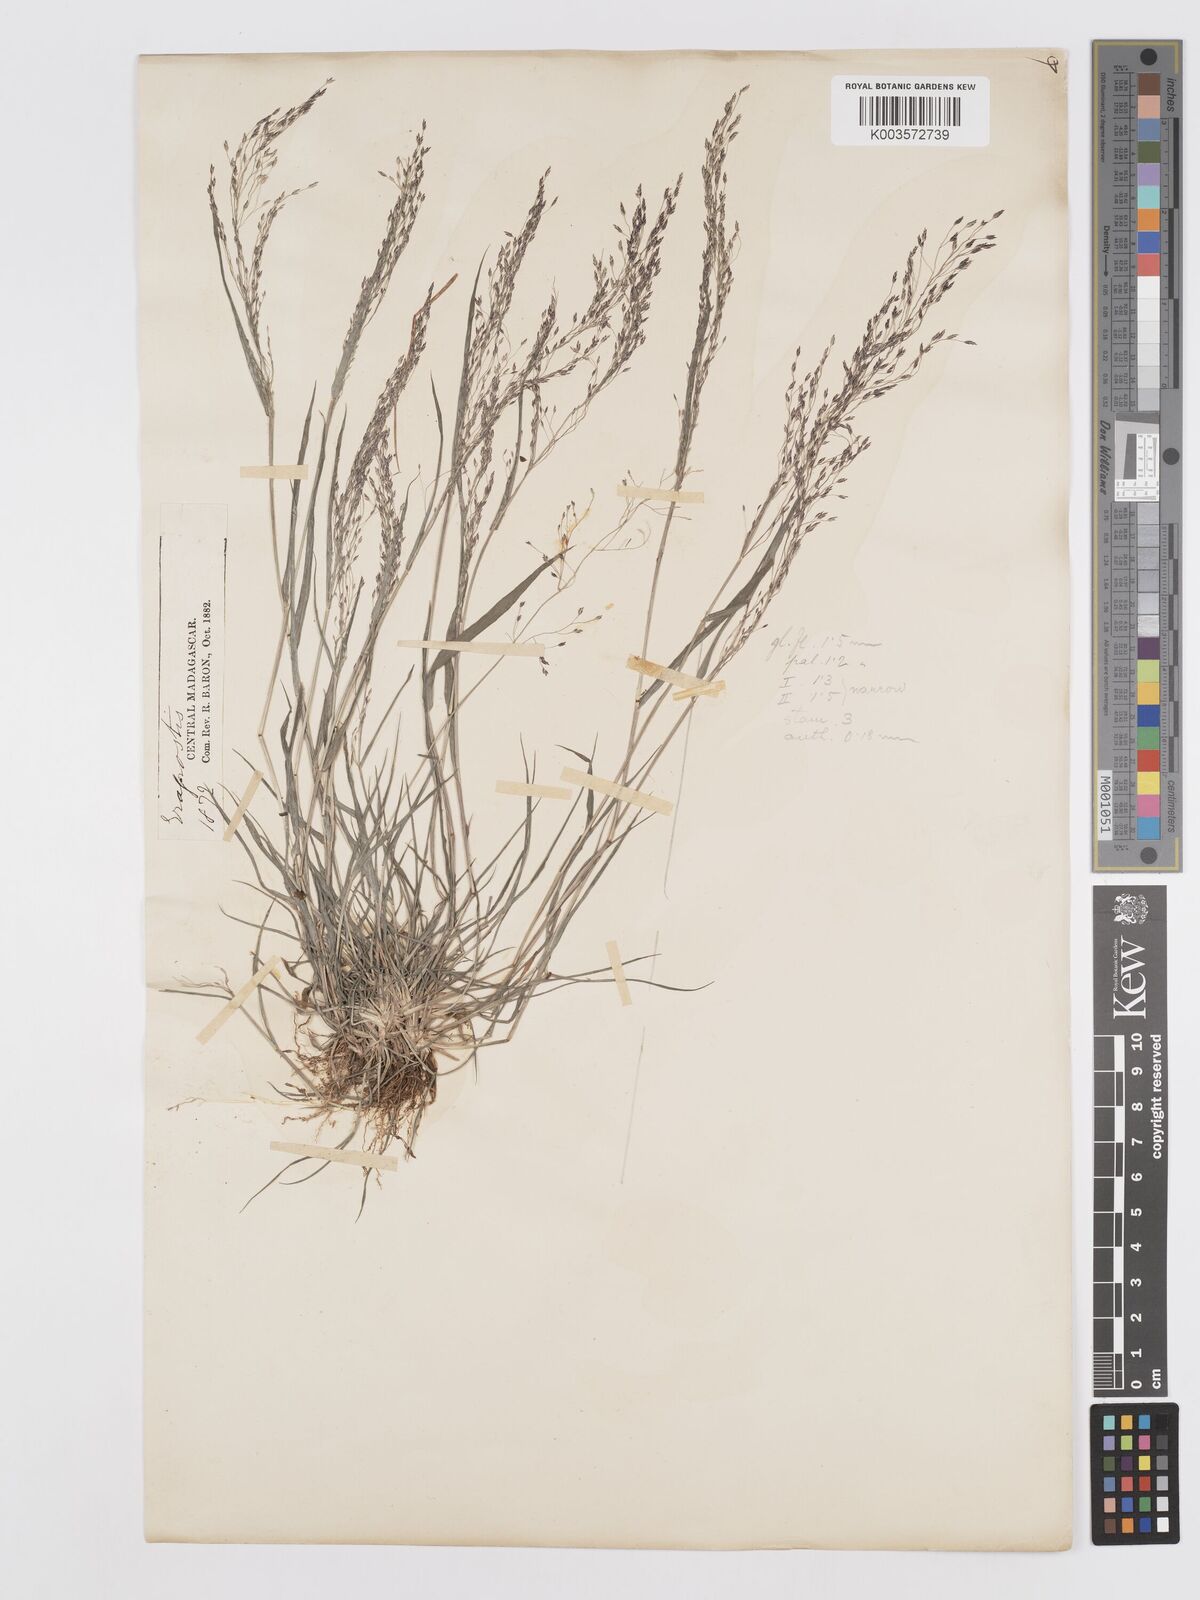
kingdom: Plantae
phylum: Tracheophyta
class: Liliopsida
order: Poales
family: Poaceae
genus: Eragrostis
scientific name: Eragrostis
